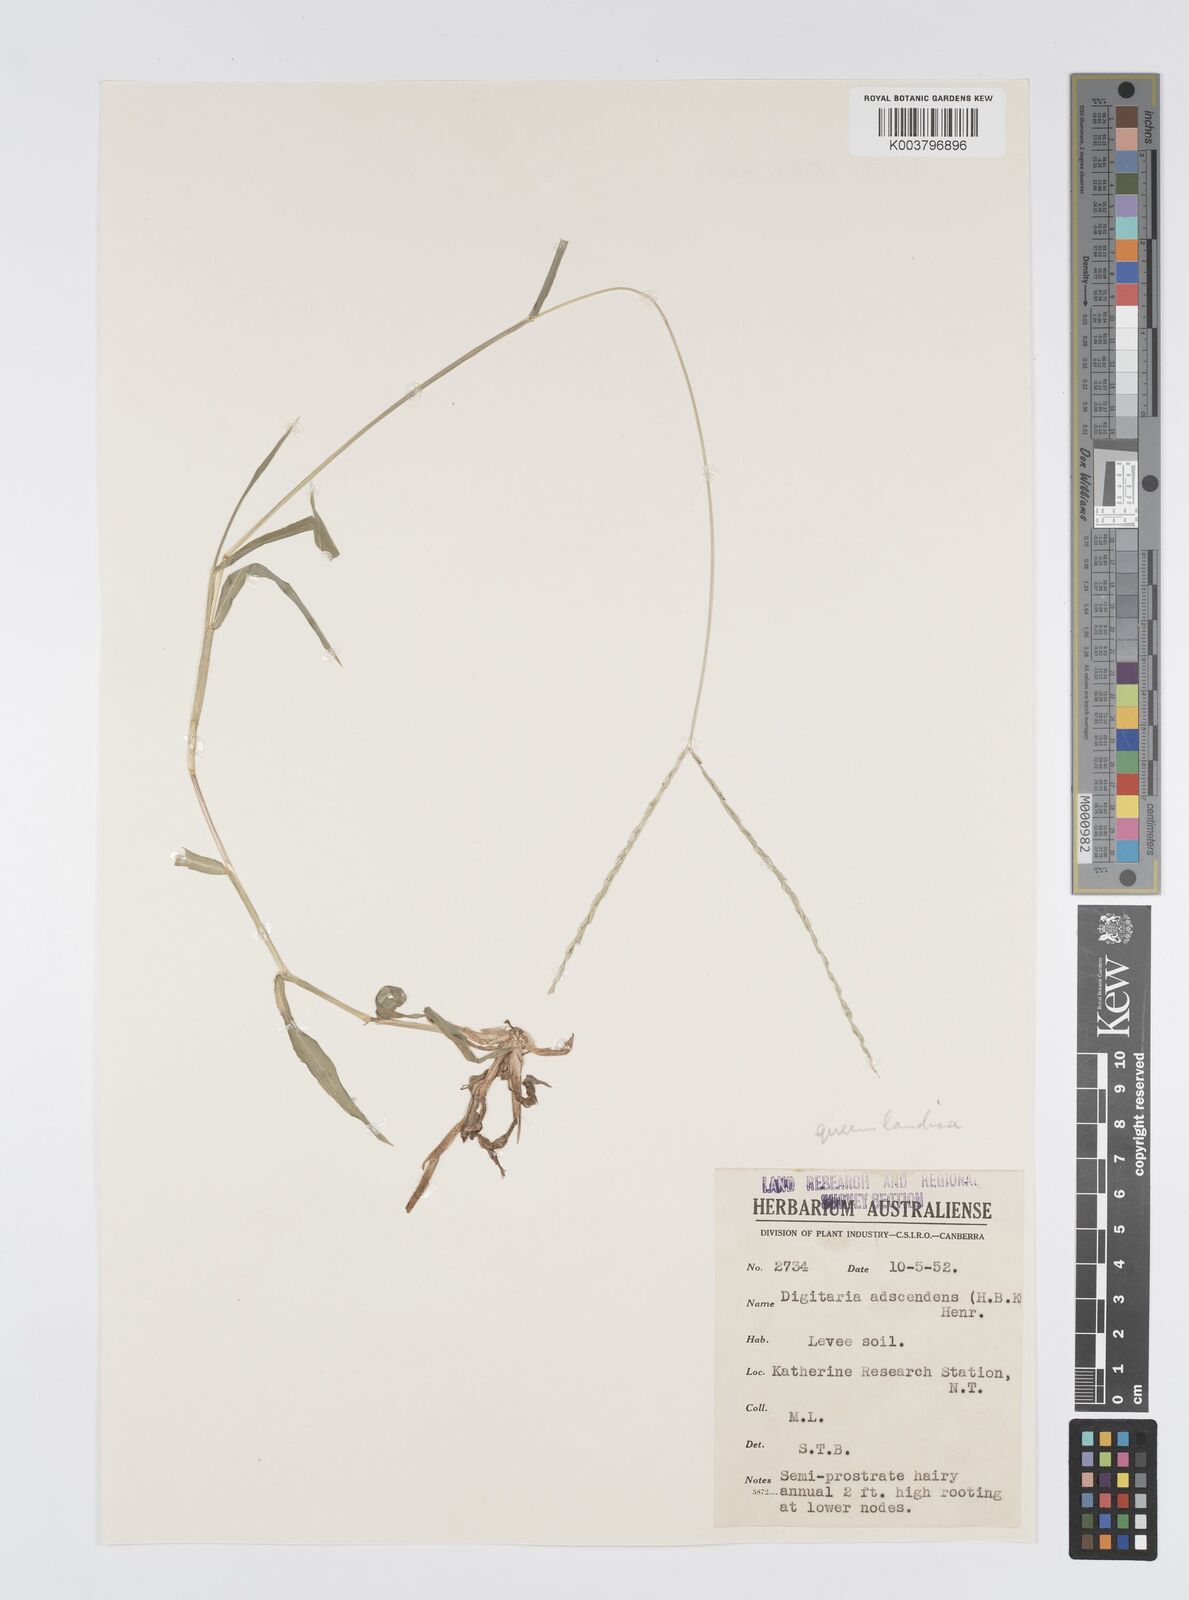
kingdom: Plantae
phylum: Tracheophyta
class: Liliopsida
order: Poales
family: Poaceae
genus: Digitaria
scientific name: Digitaria bicornis
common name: Asian crabgrass
